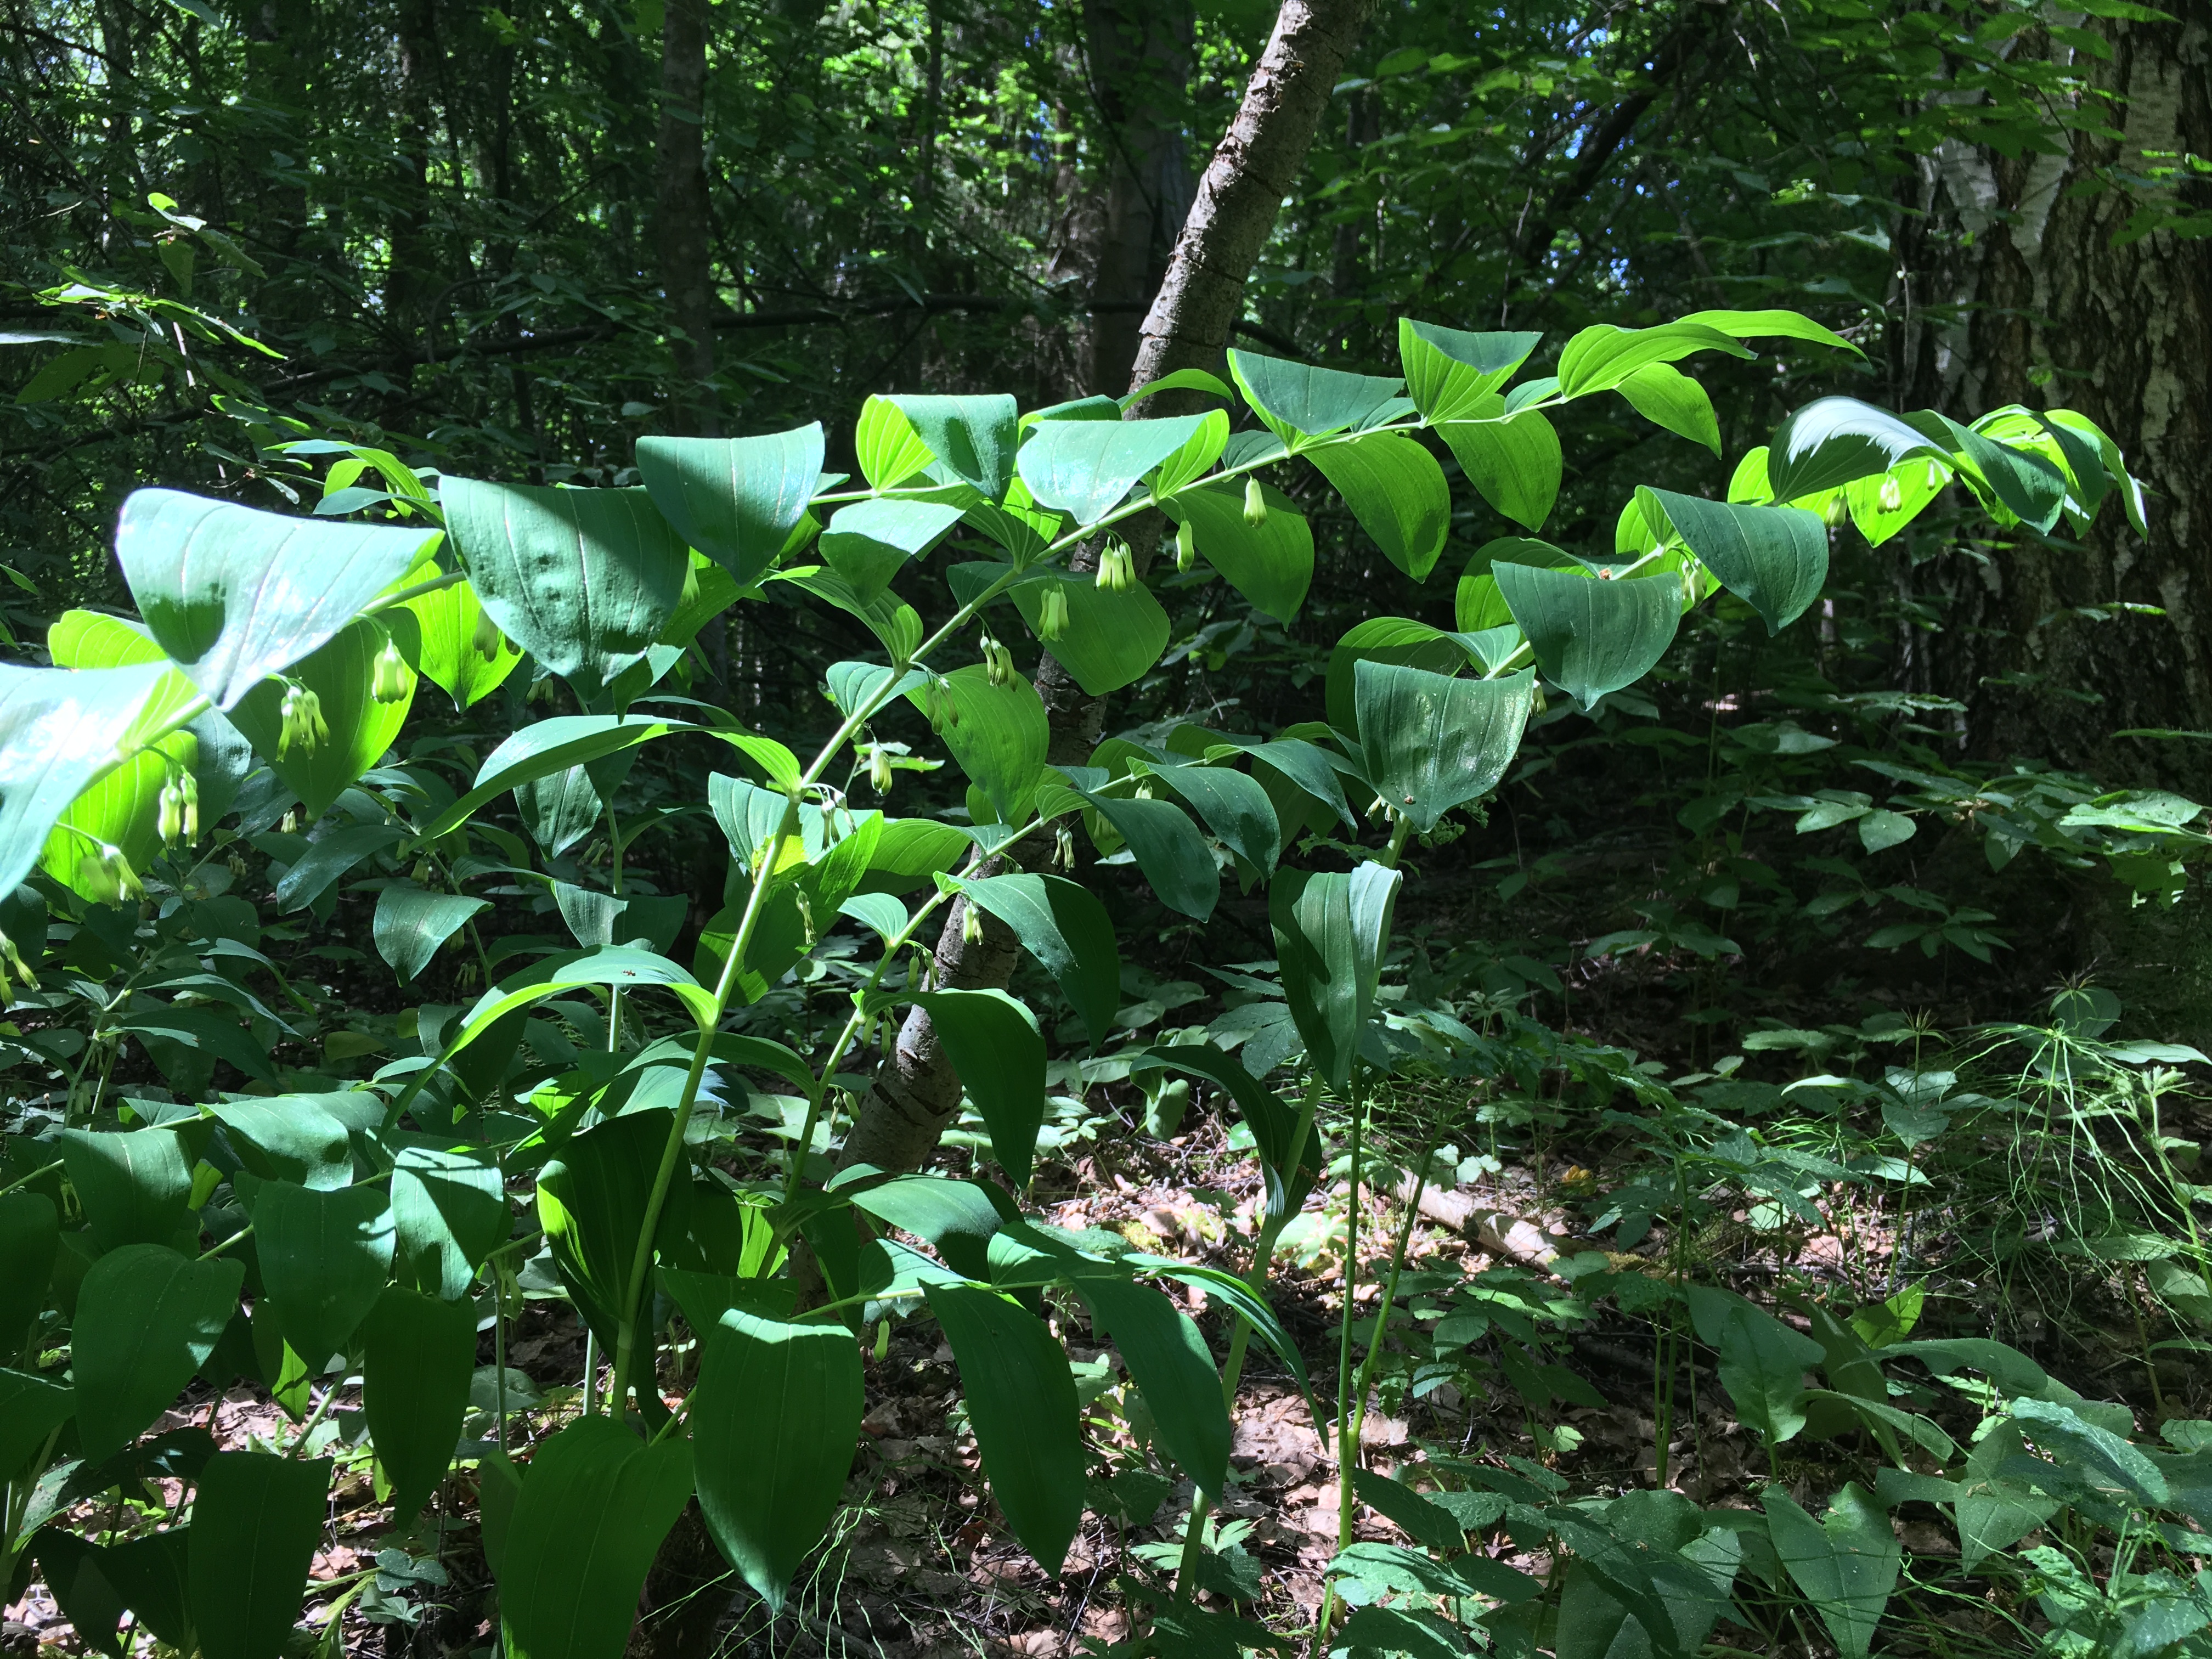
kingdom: Plantae
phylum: Tracheophyta
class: Liliopsida
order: Asparagales
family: Asparagaceae
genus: Polygonatum
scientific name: Polygonatum multiflorum
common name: Solomon's-seal
